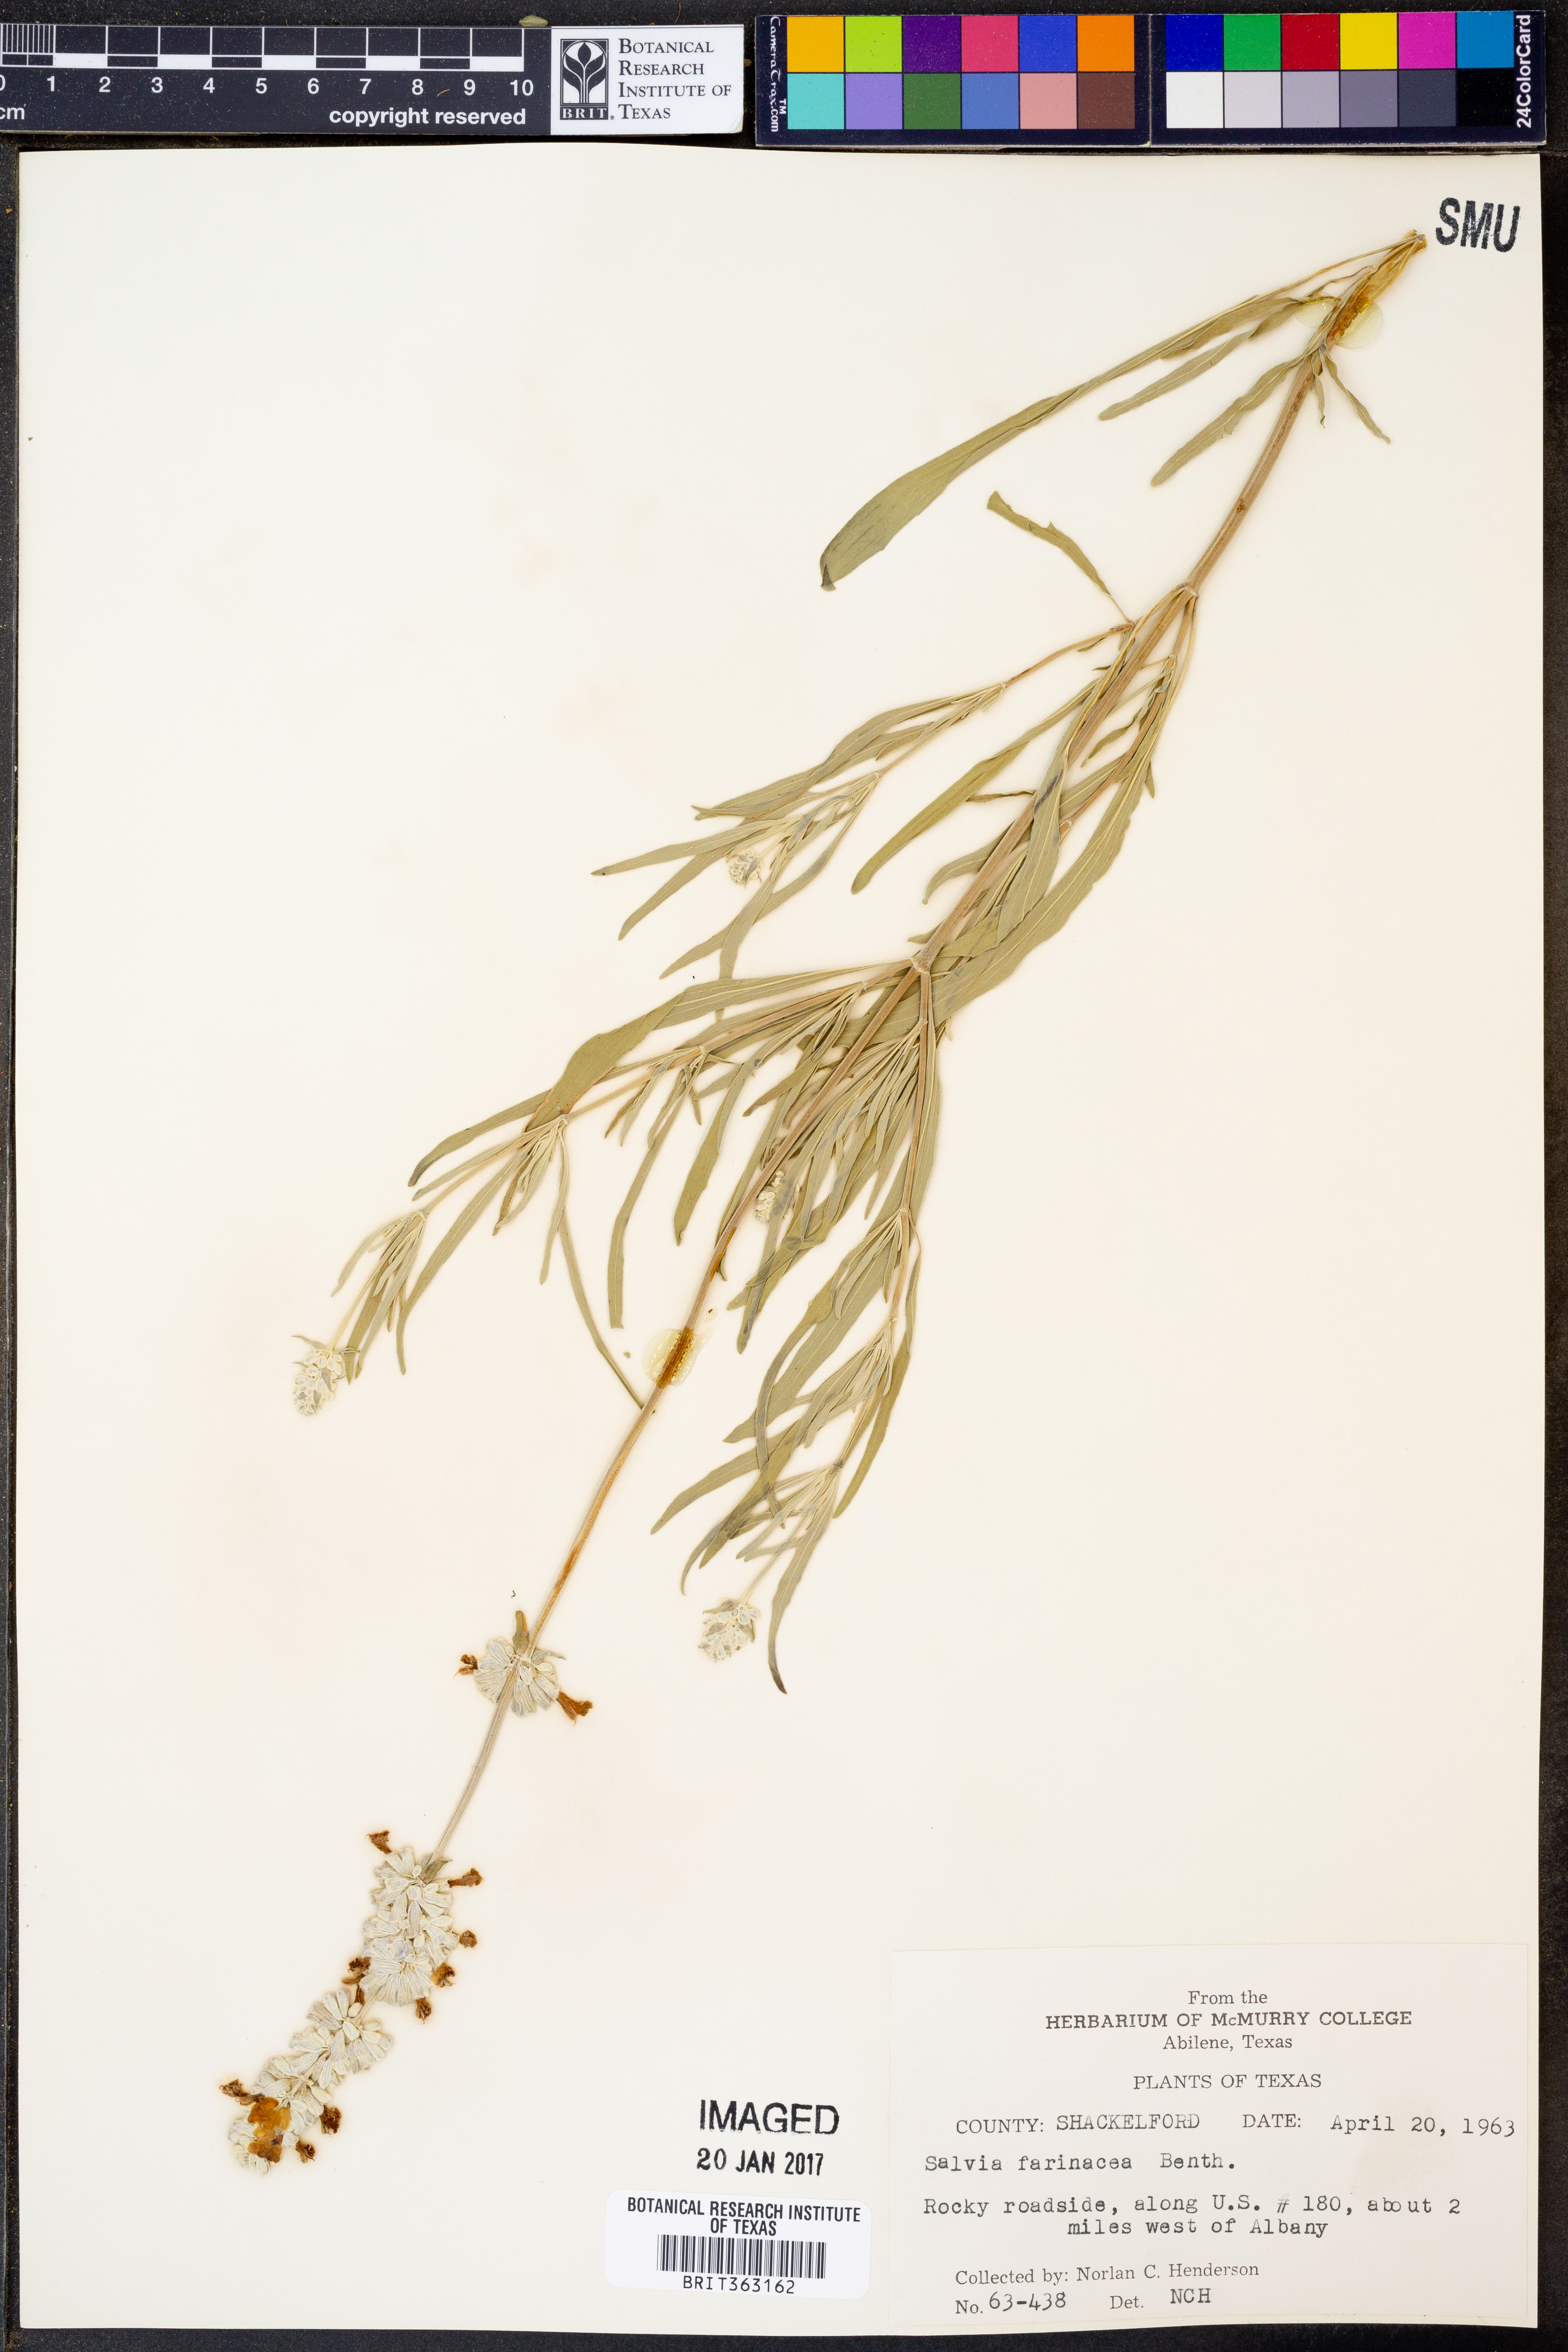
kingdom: Plantae
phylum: Tracheophyta
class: Magnoliopsida
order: Lamiales
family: Lamiaceae
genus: Salvia
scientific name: Salvia farinacea
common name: Mealy sage
